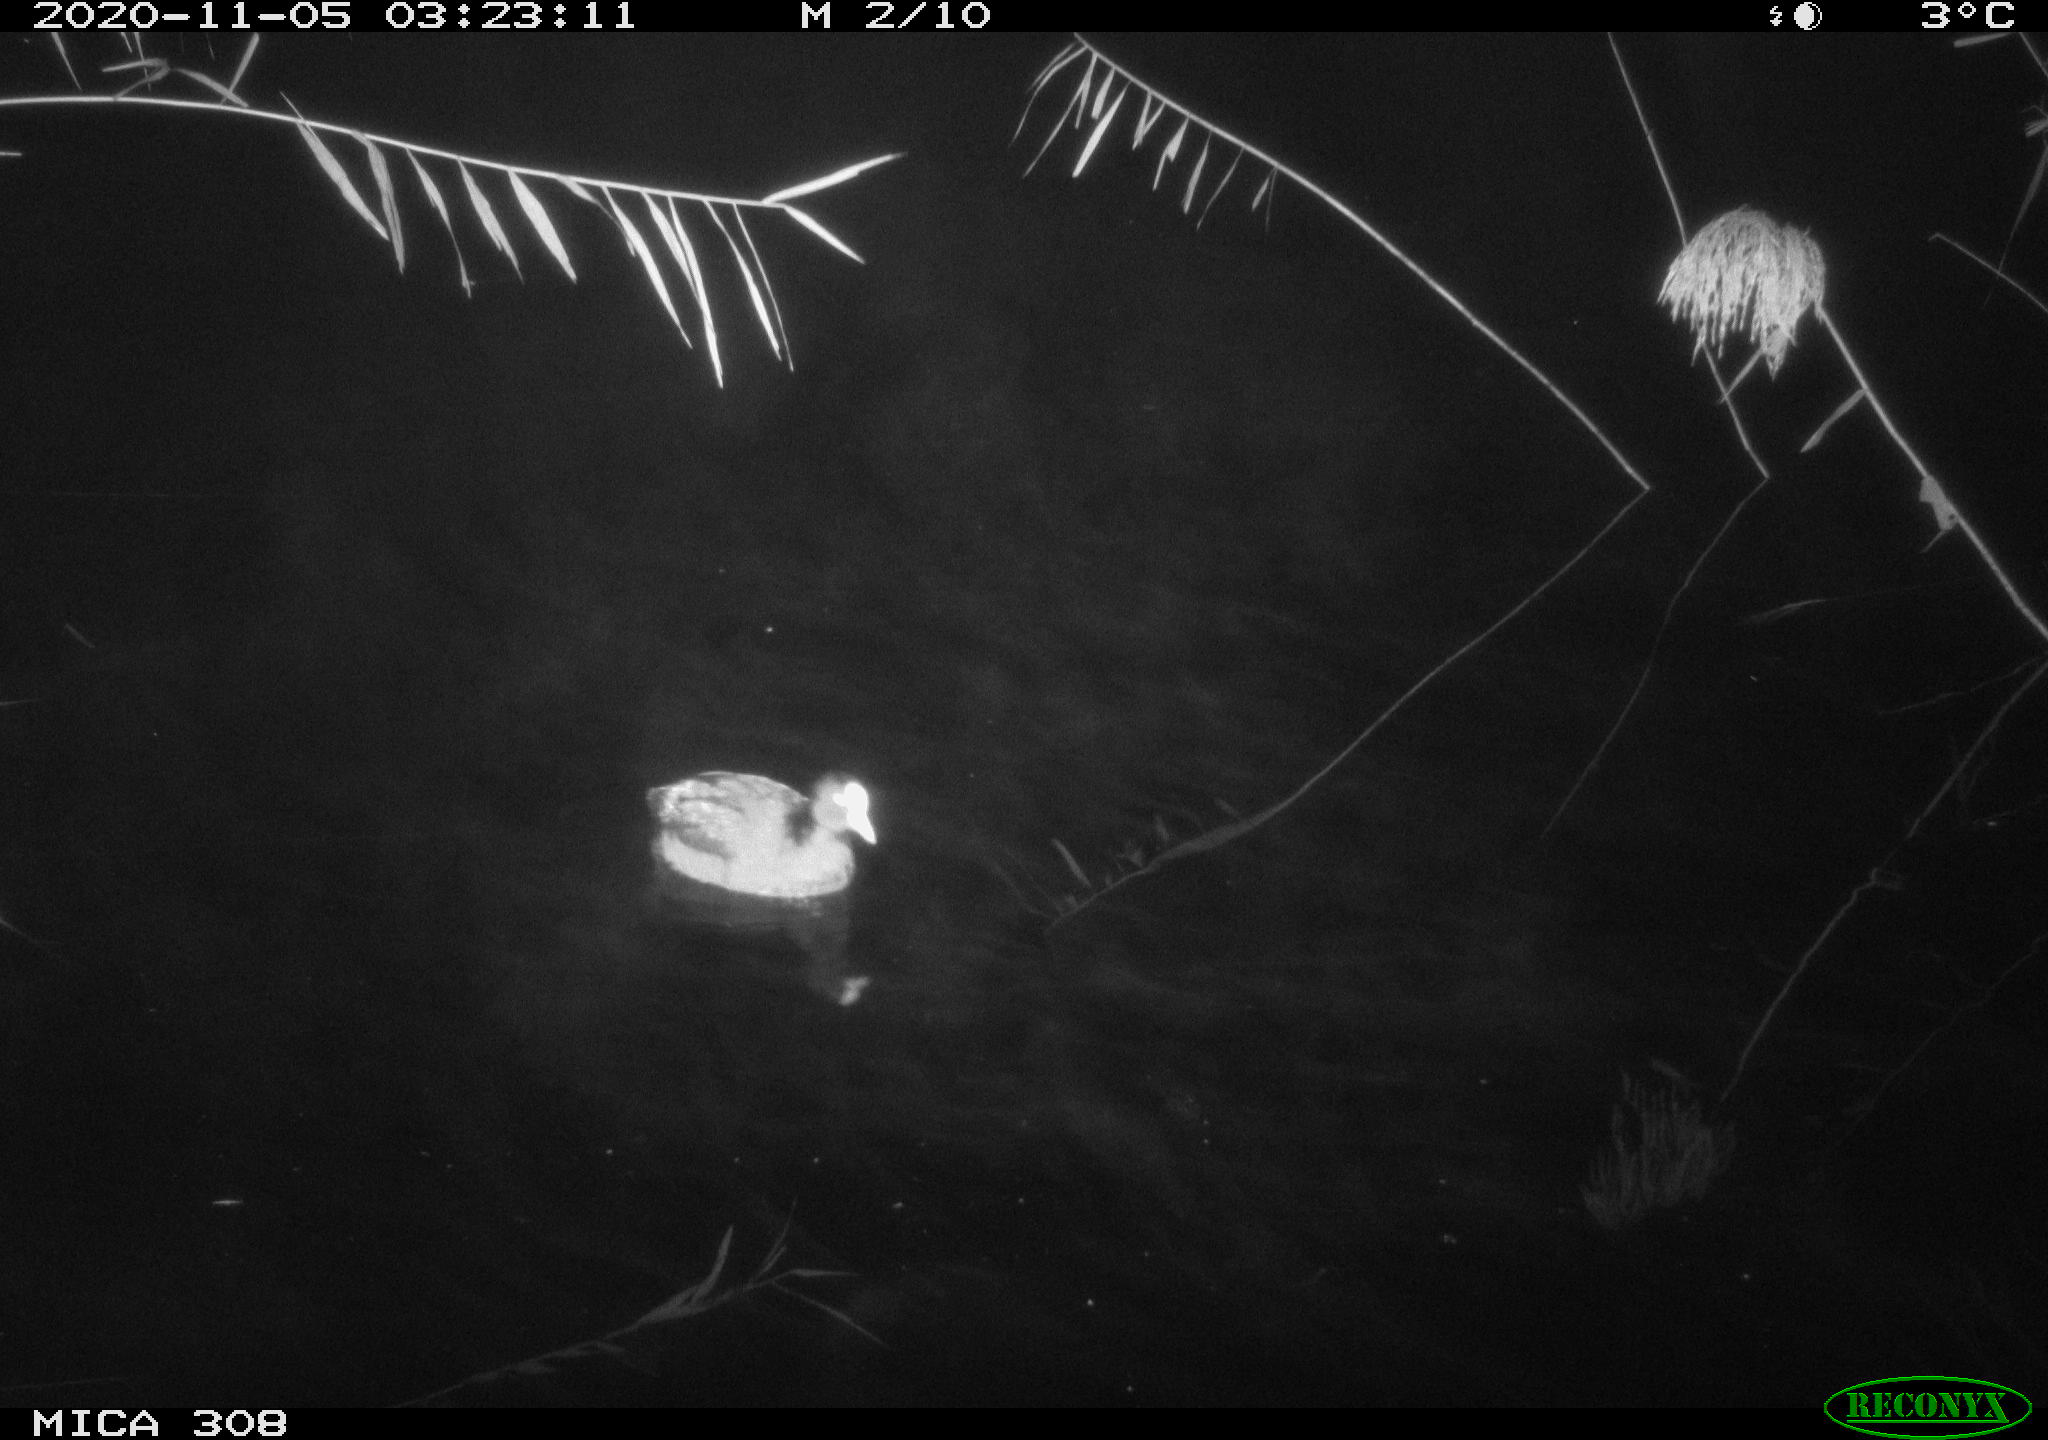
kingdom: Animalia
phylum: Chordata
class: Aves
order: Gruiformes
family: Rallidae
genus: Fulica
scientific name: Fulica atra
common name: Eurasian coot
